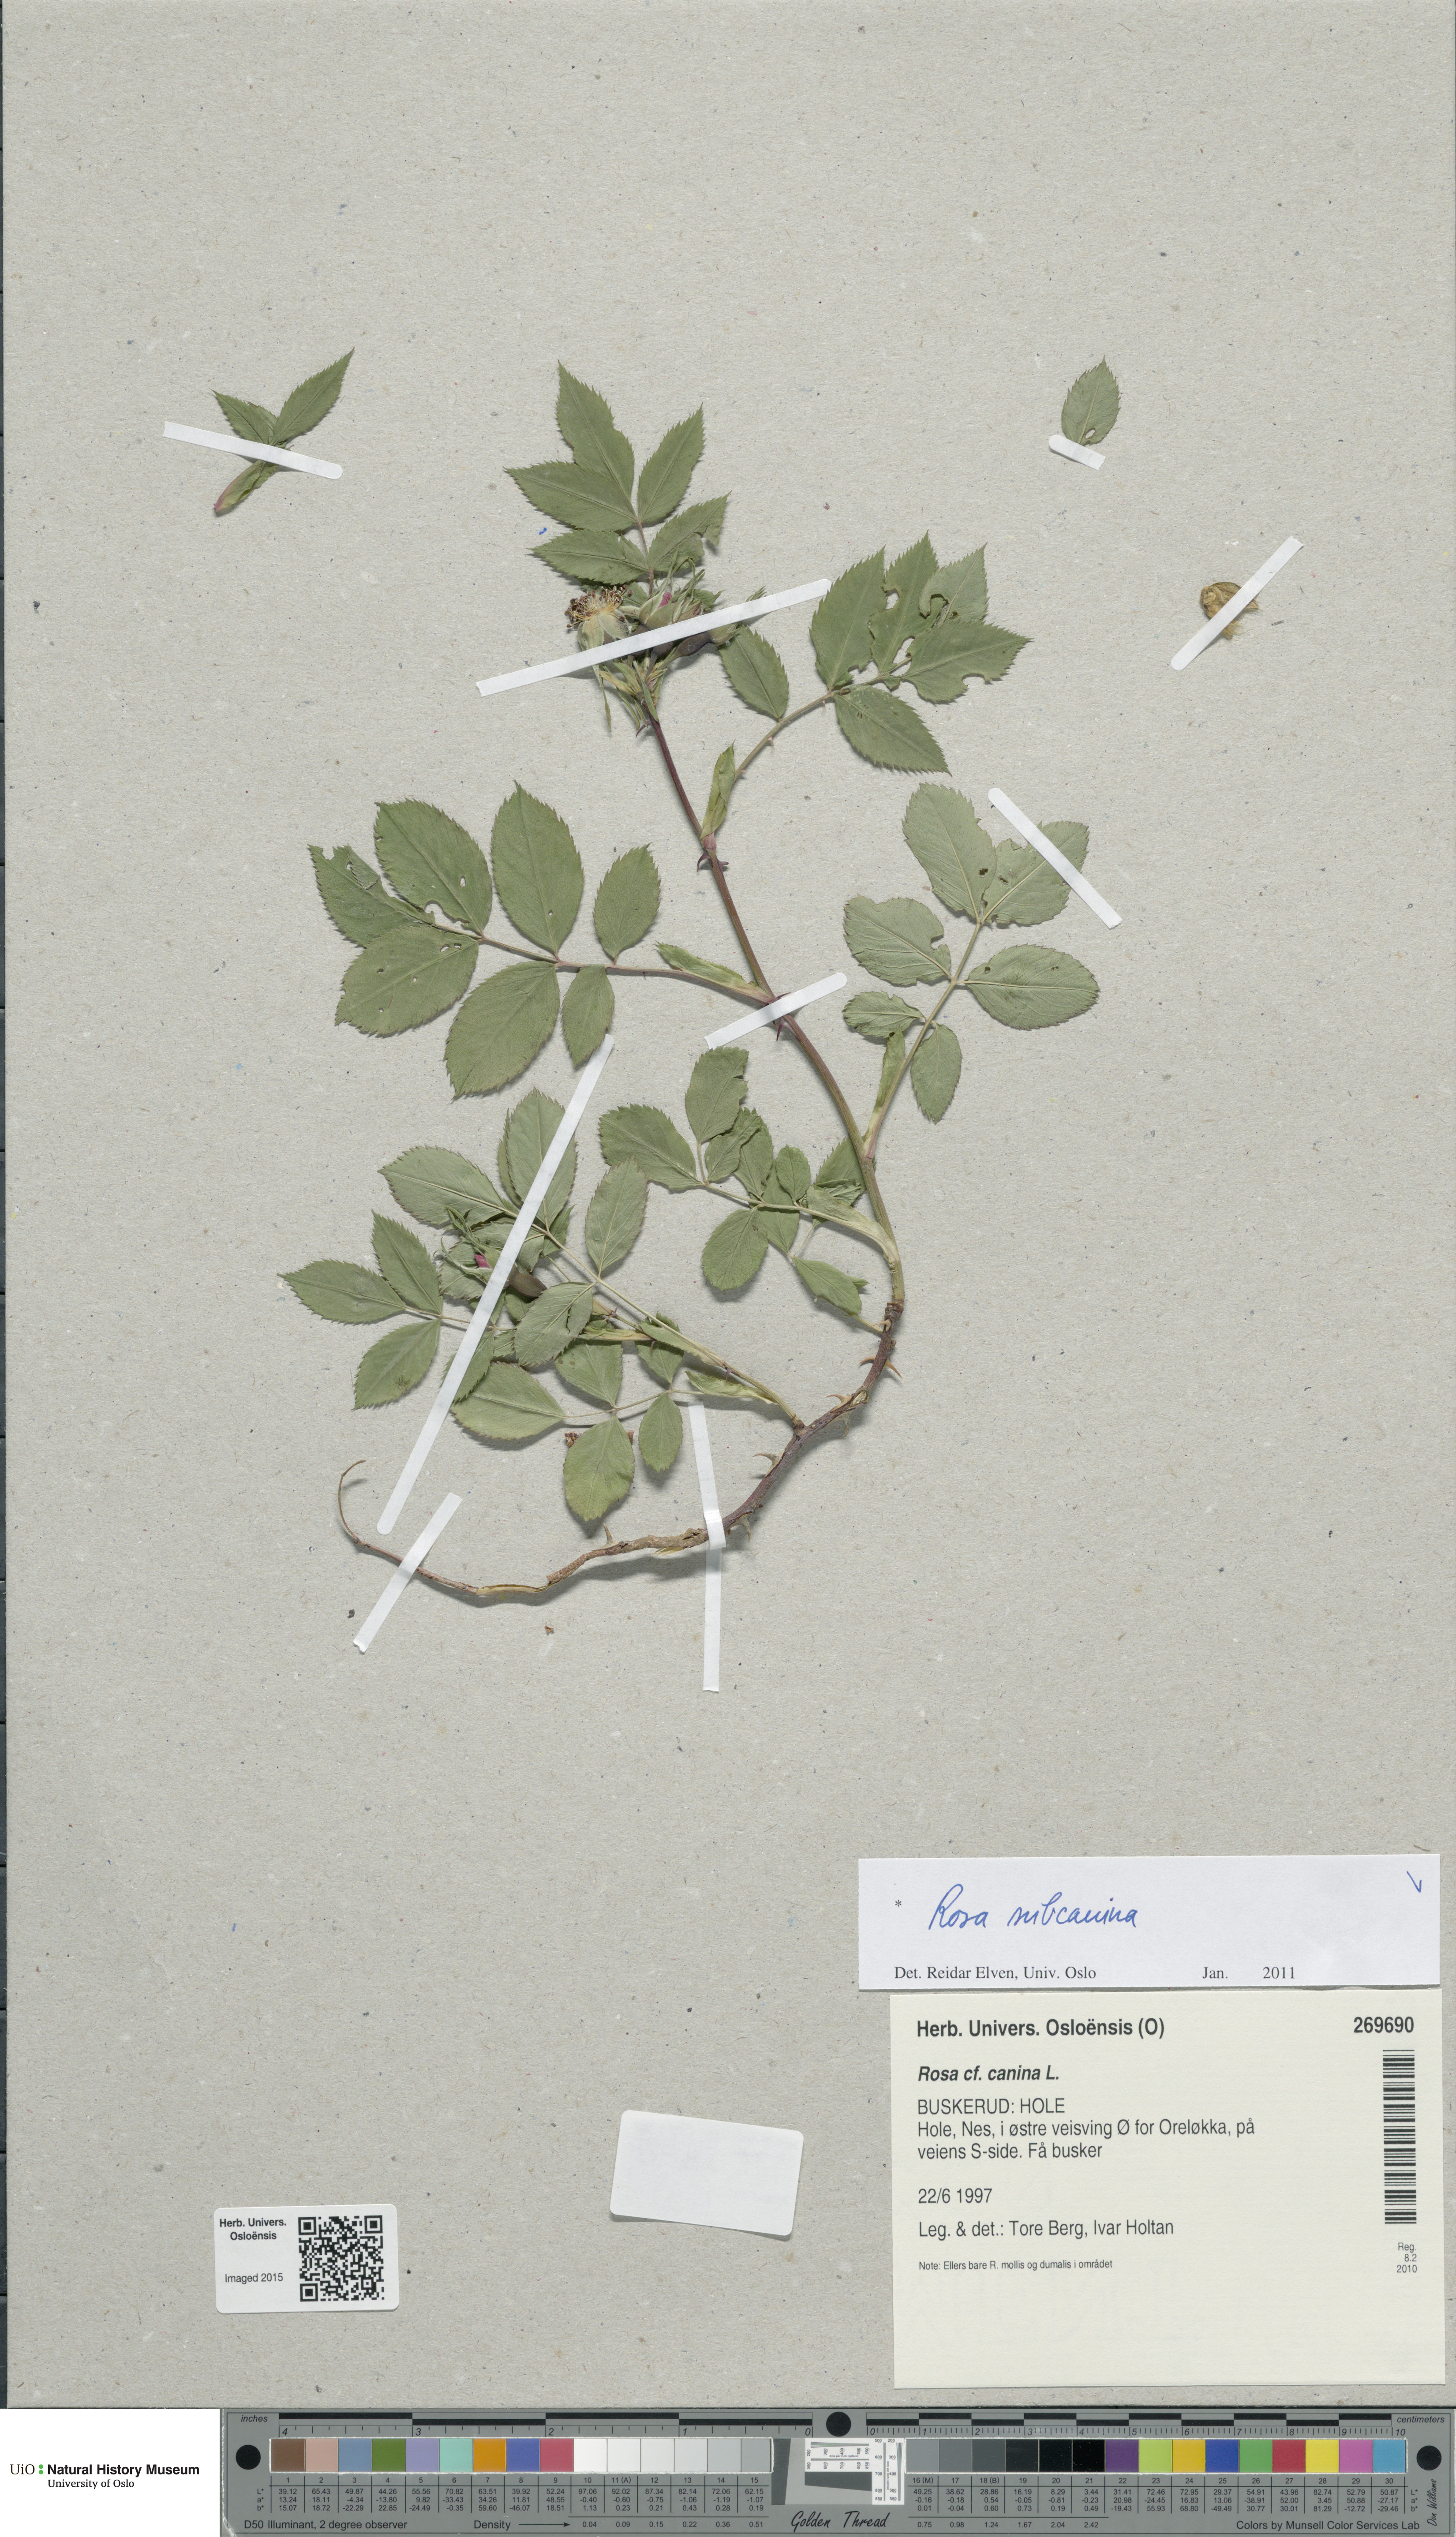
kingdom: Plantae
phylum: Tracheophyta
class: Magnoliopsida
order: Rosales
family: Rosaceae
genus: Rosa
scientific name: Rosa subcanina
